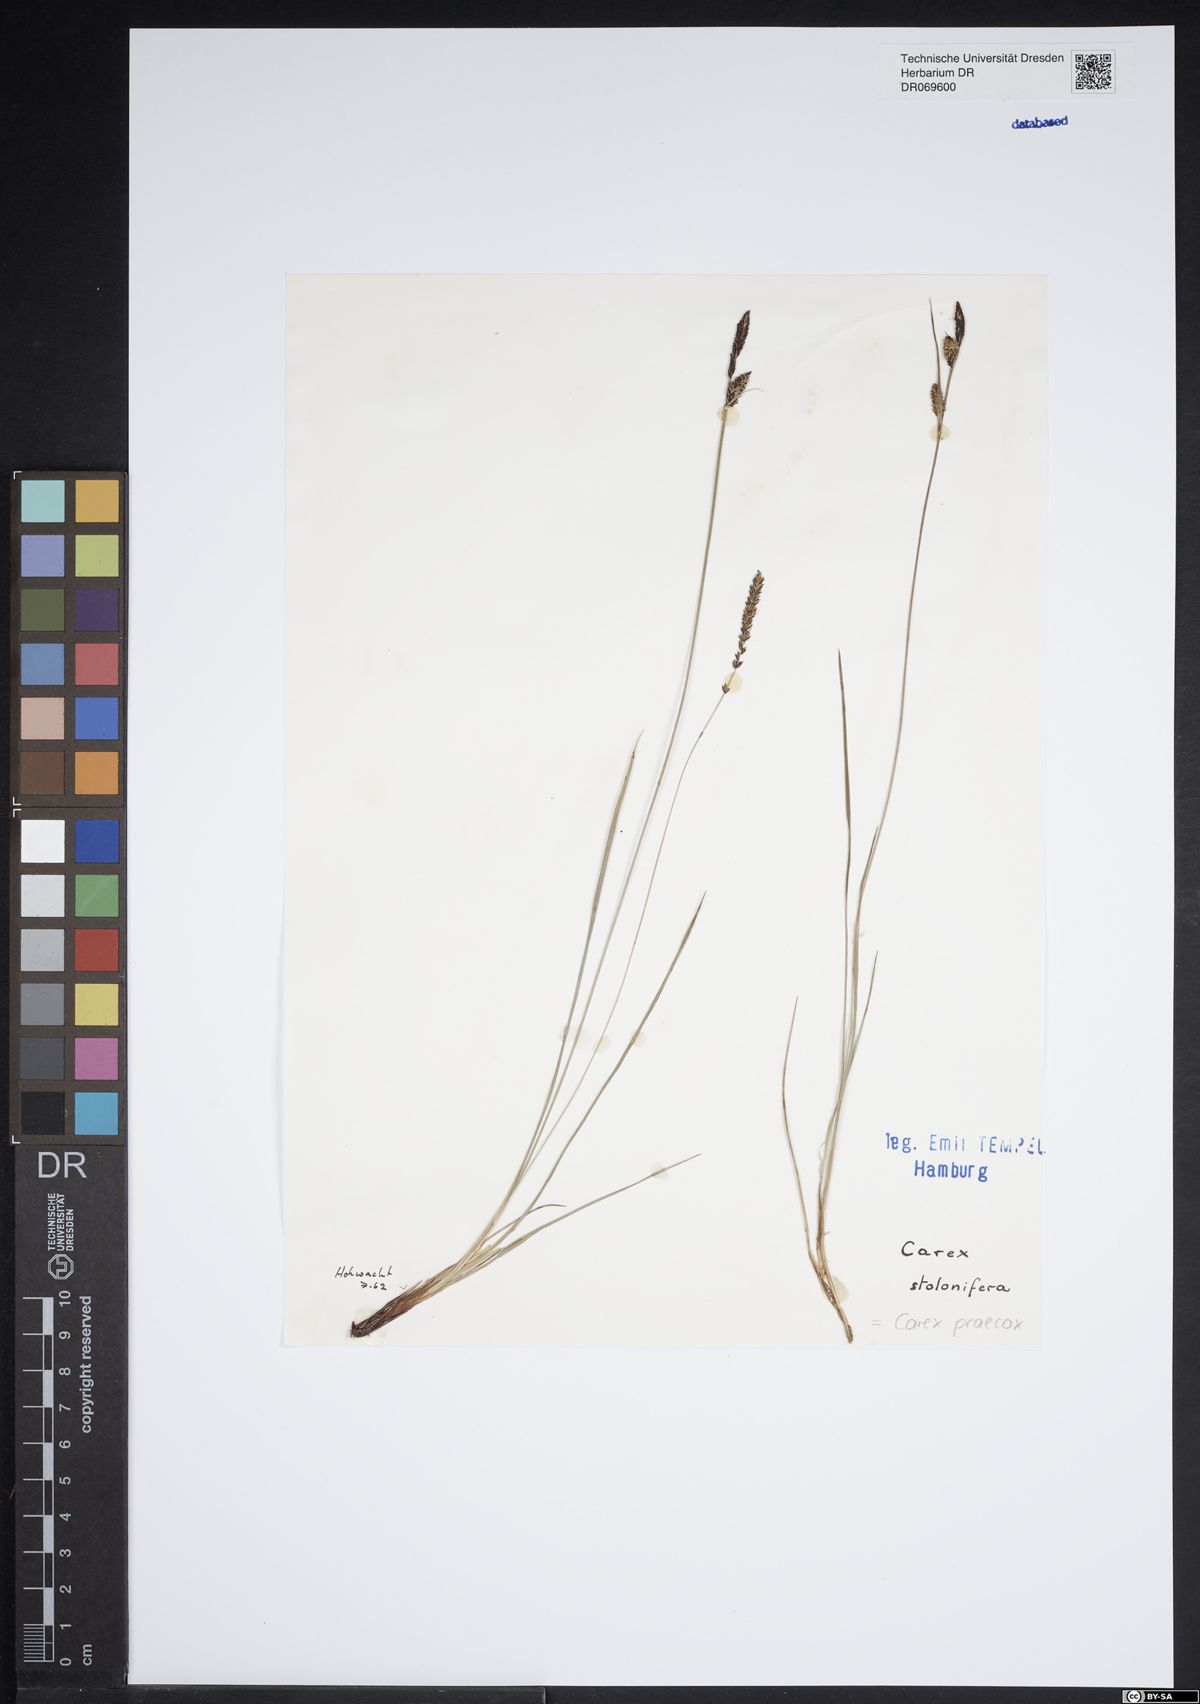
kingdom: Plantae
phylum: Tracheophyta
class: Liliopsida
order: Poales
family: Cyperaceae
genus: Carex
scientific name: Carex praecox
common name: Early sedge
